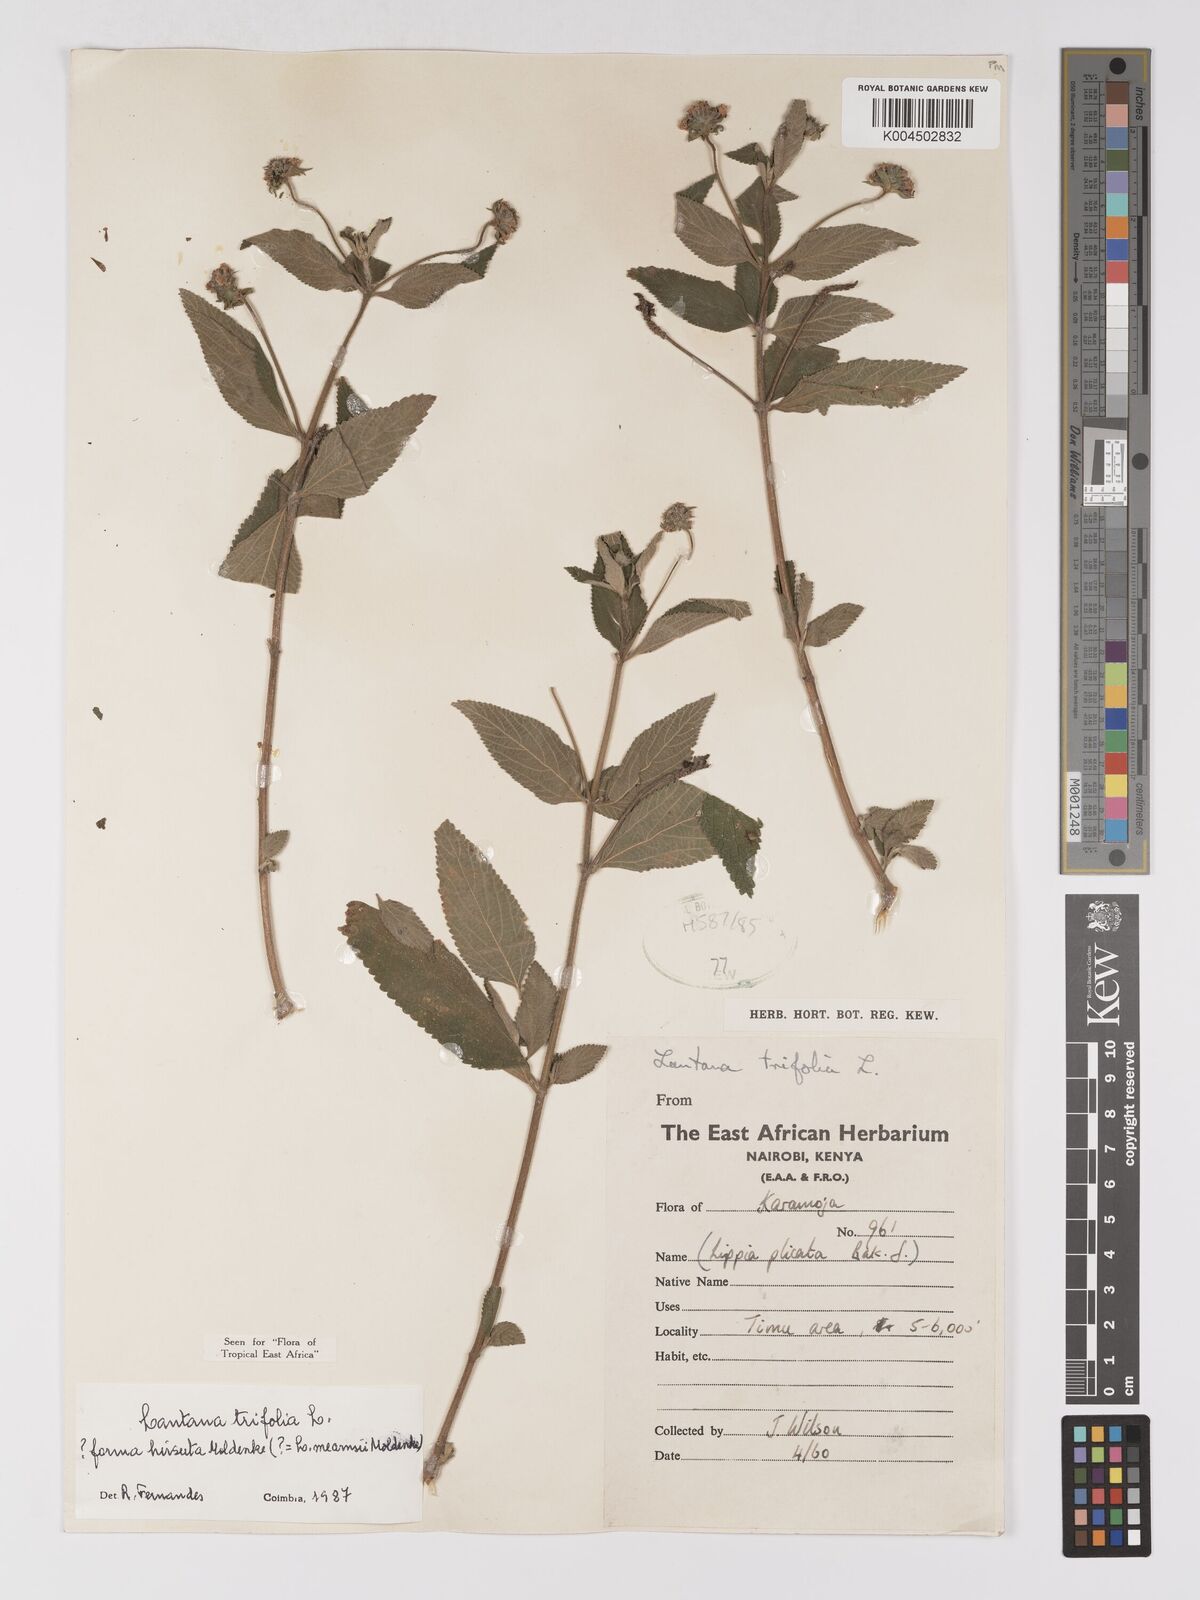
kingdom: Plantae
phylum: Tracheophyta
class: Magnoliopsida
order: Lamiales
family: Verbenaceae
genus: Lantana
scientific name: Lantana trifolia
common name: Sweet-sage
